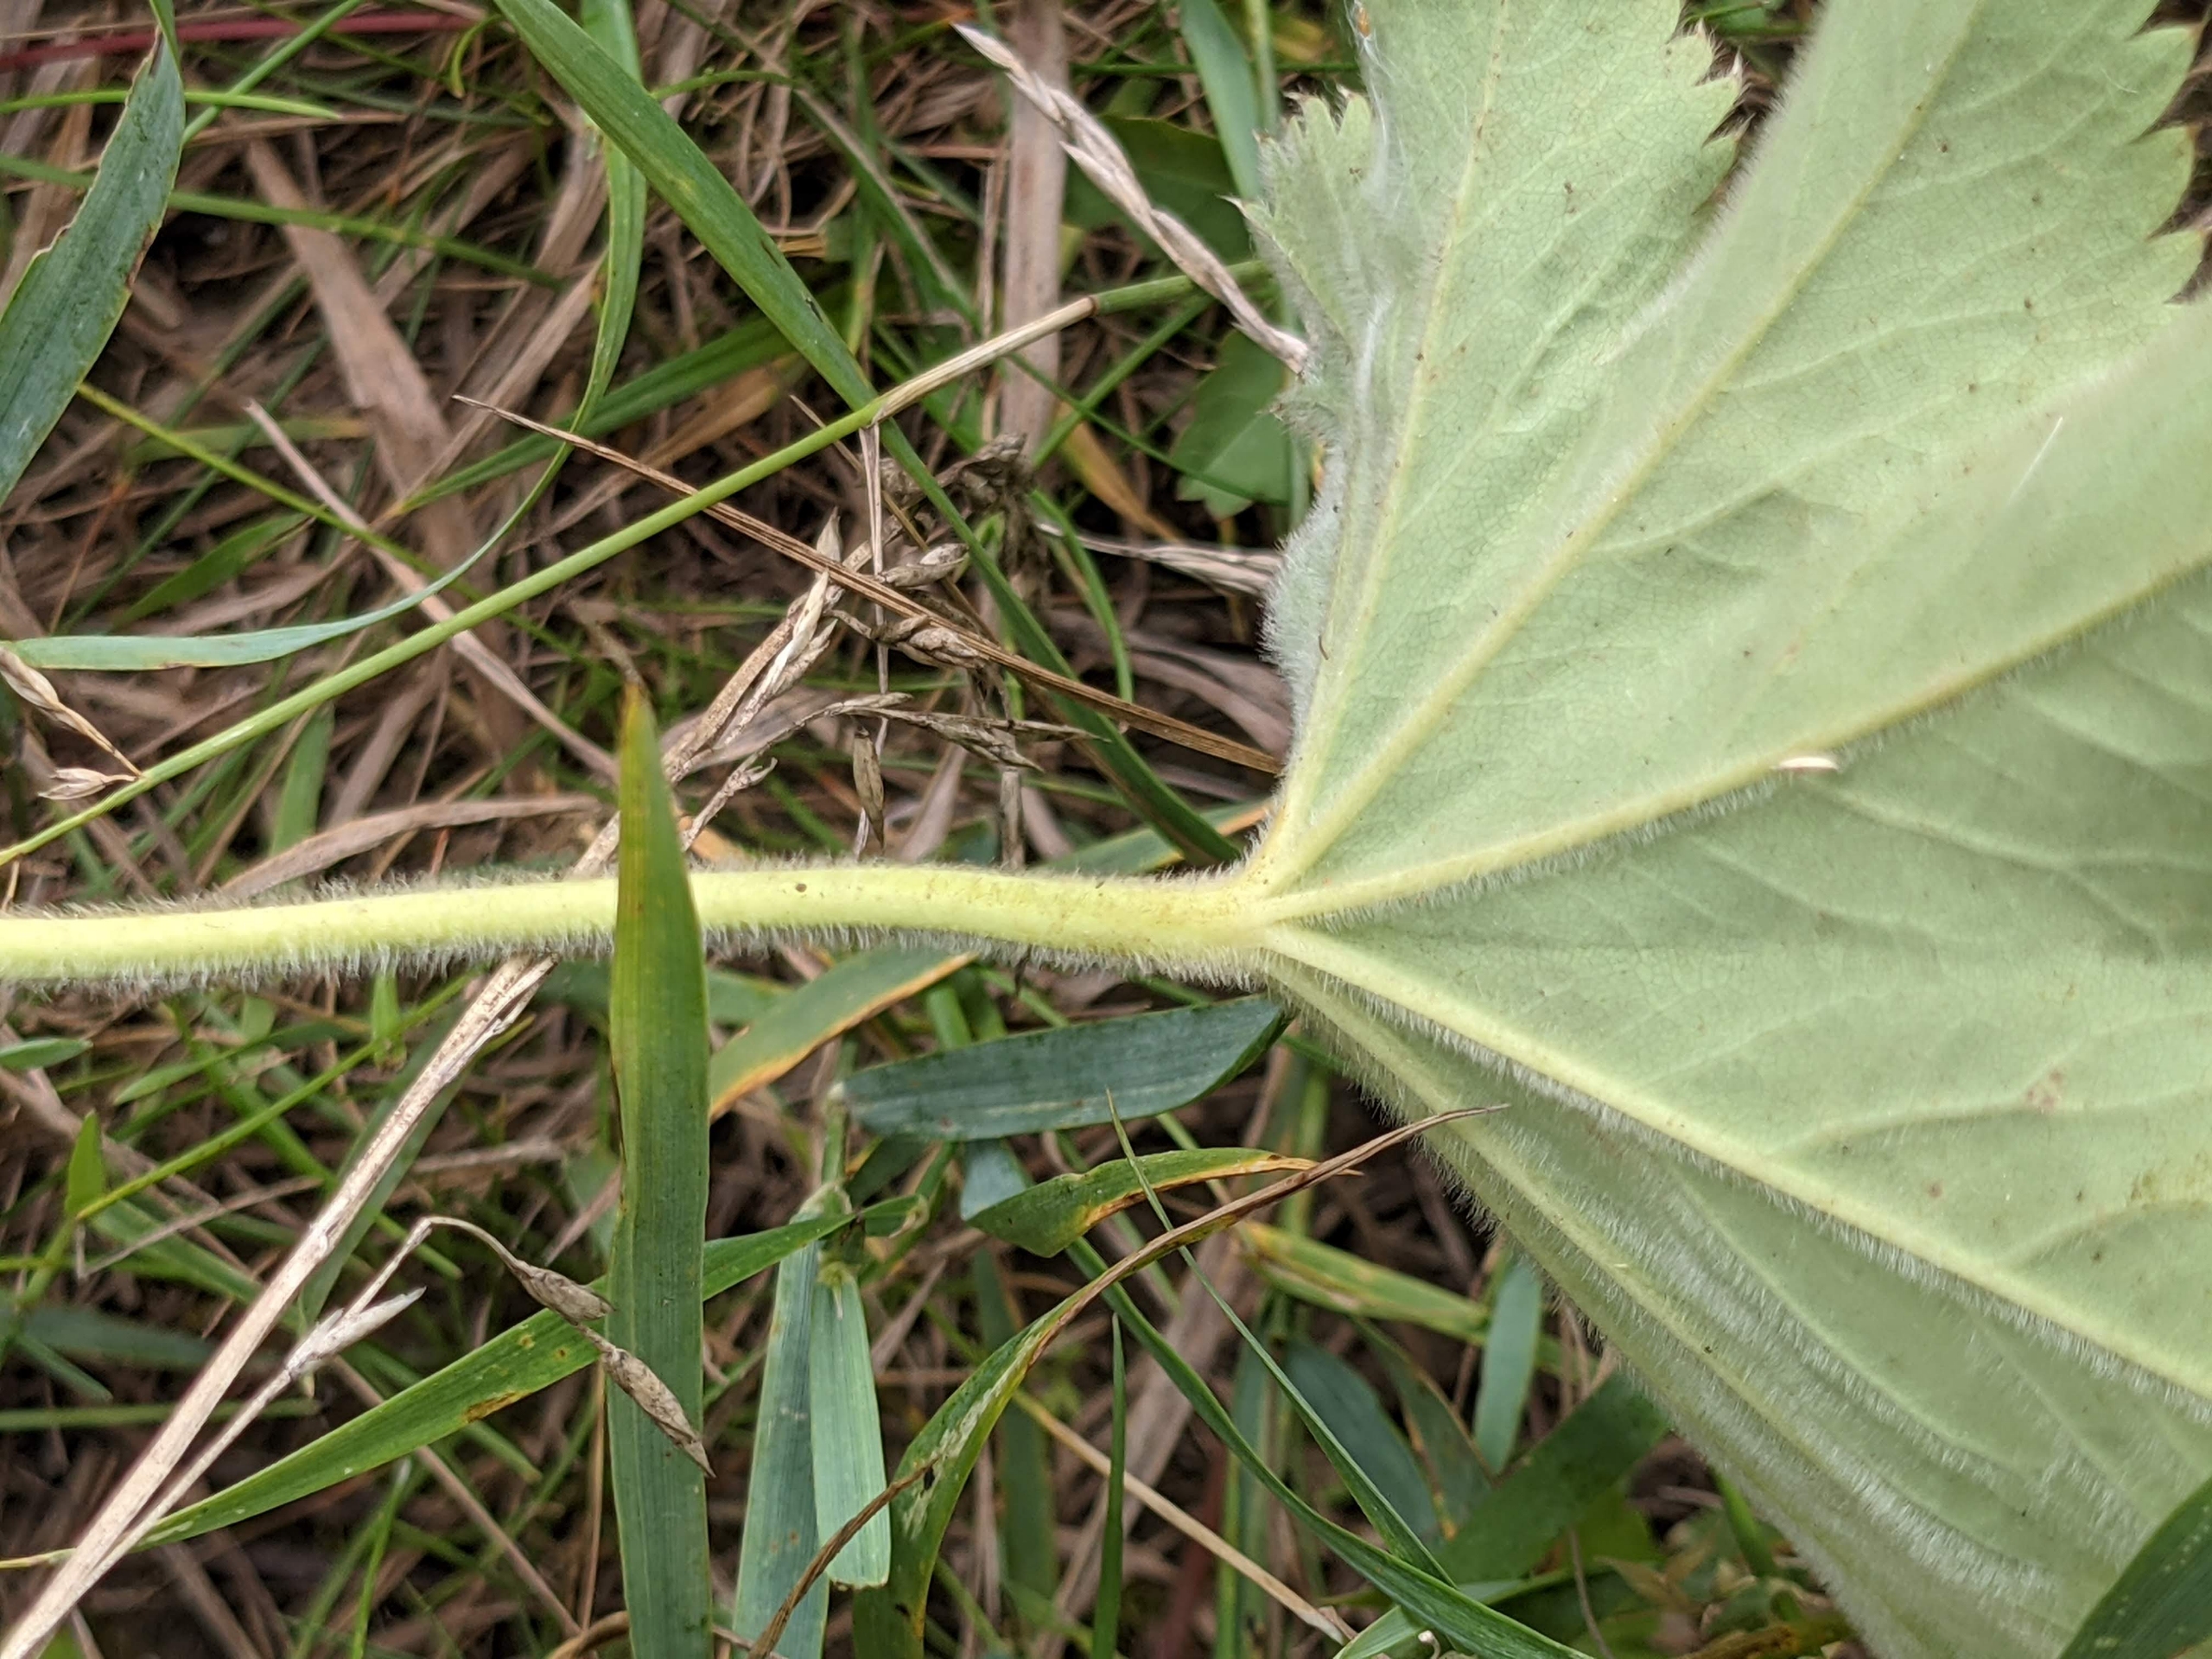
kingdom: Plantae
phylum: Tracheophyta
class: Magnoliopsida
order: Rosales
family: Rosaceae
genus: Alchemilla
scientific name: Alchemilla mollis
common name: Lådden løvefod
